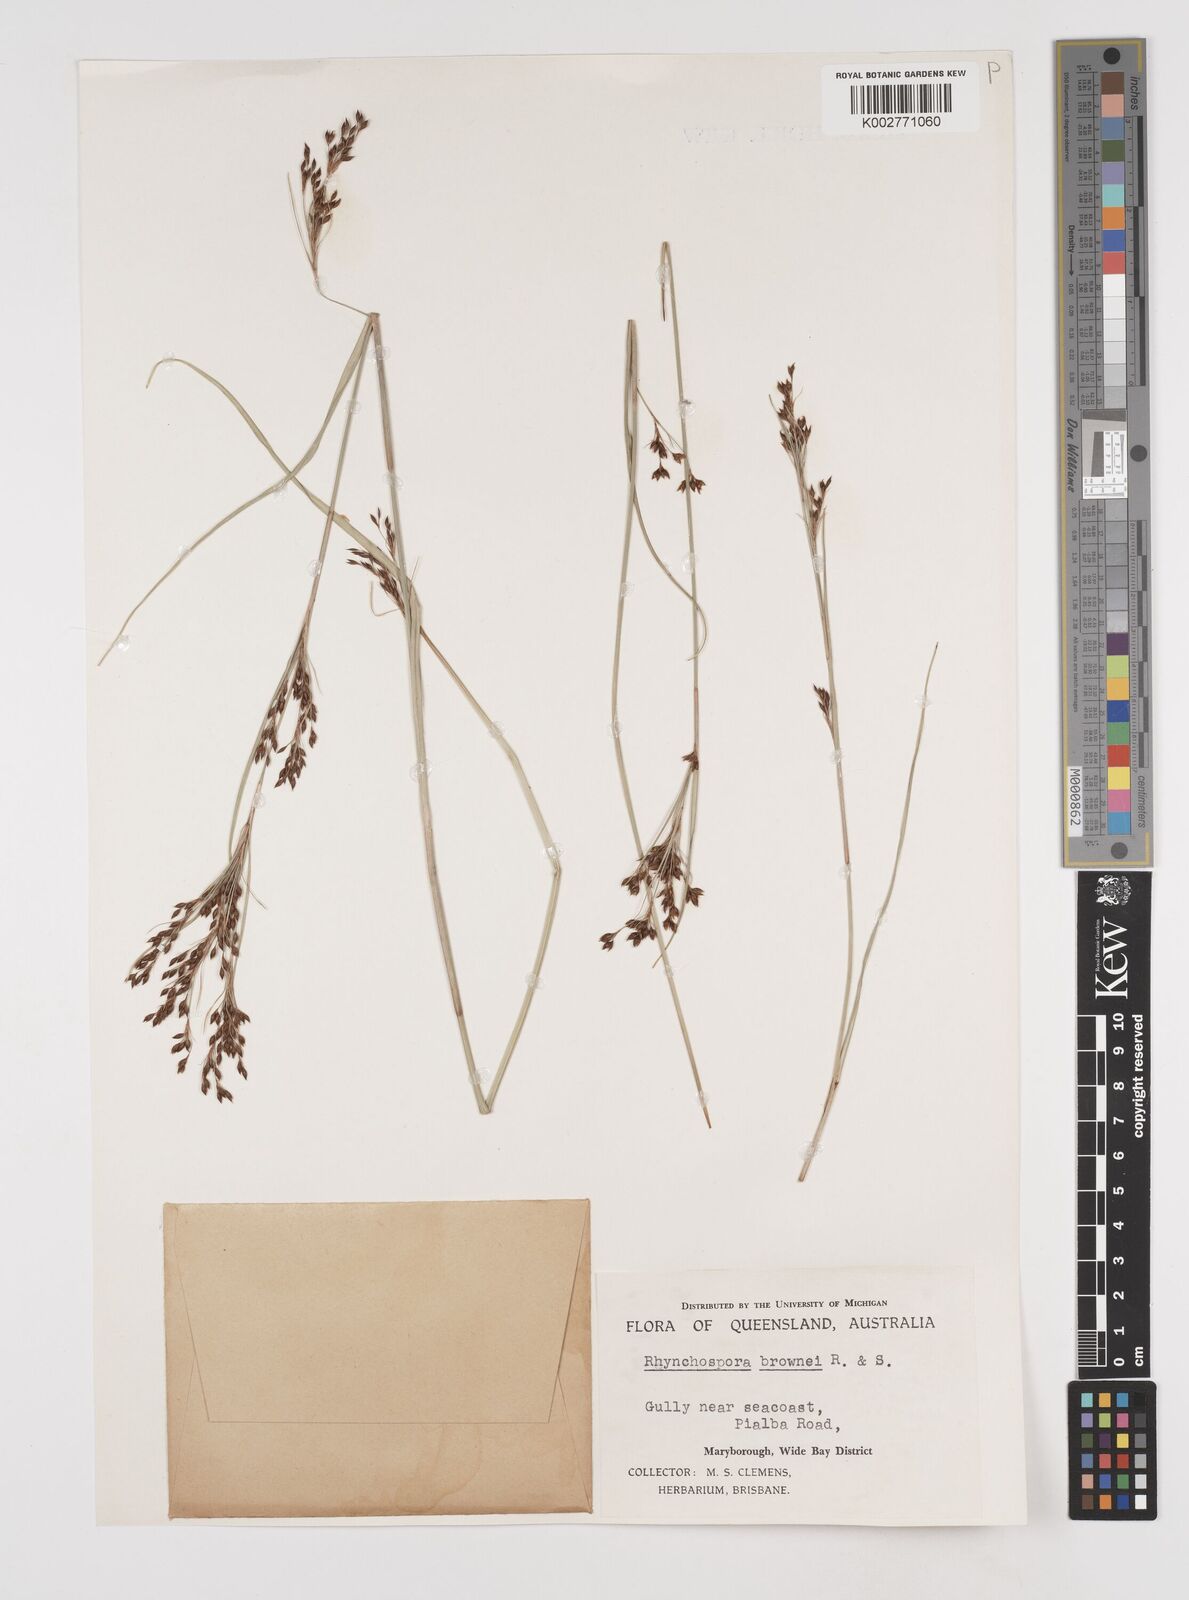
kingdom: Plantae
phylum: Tracheophyta
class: Liliopsida
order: Poales
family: Cyperaceae
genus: Rhynchospora
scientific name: Rhynchospora rugosa
